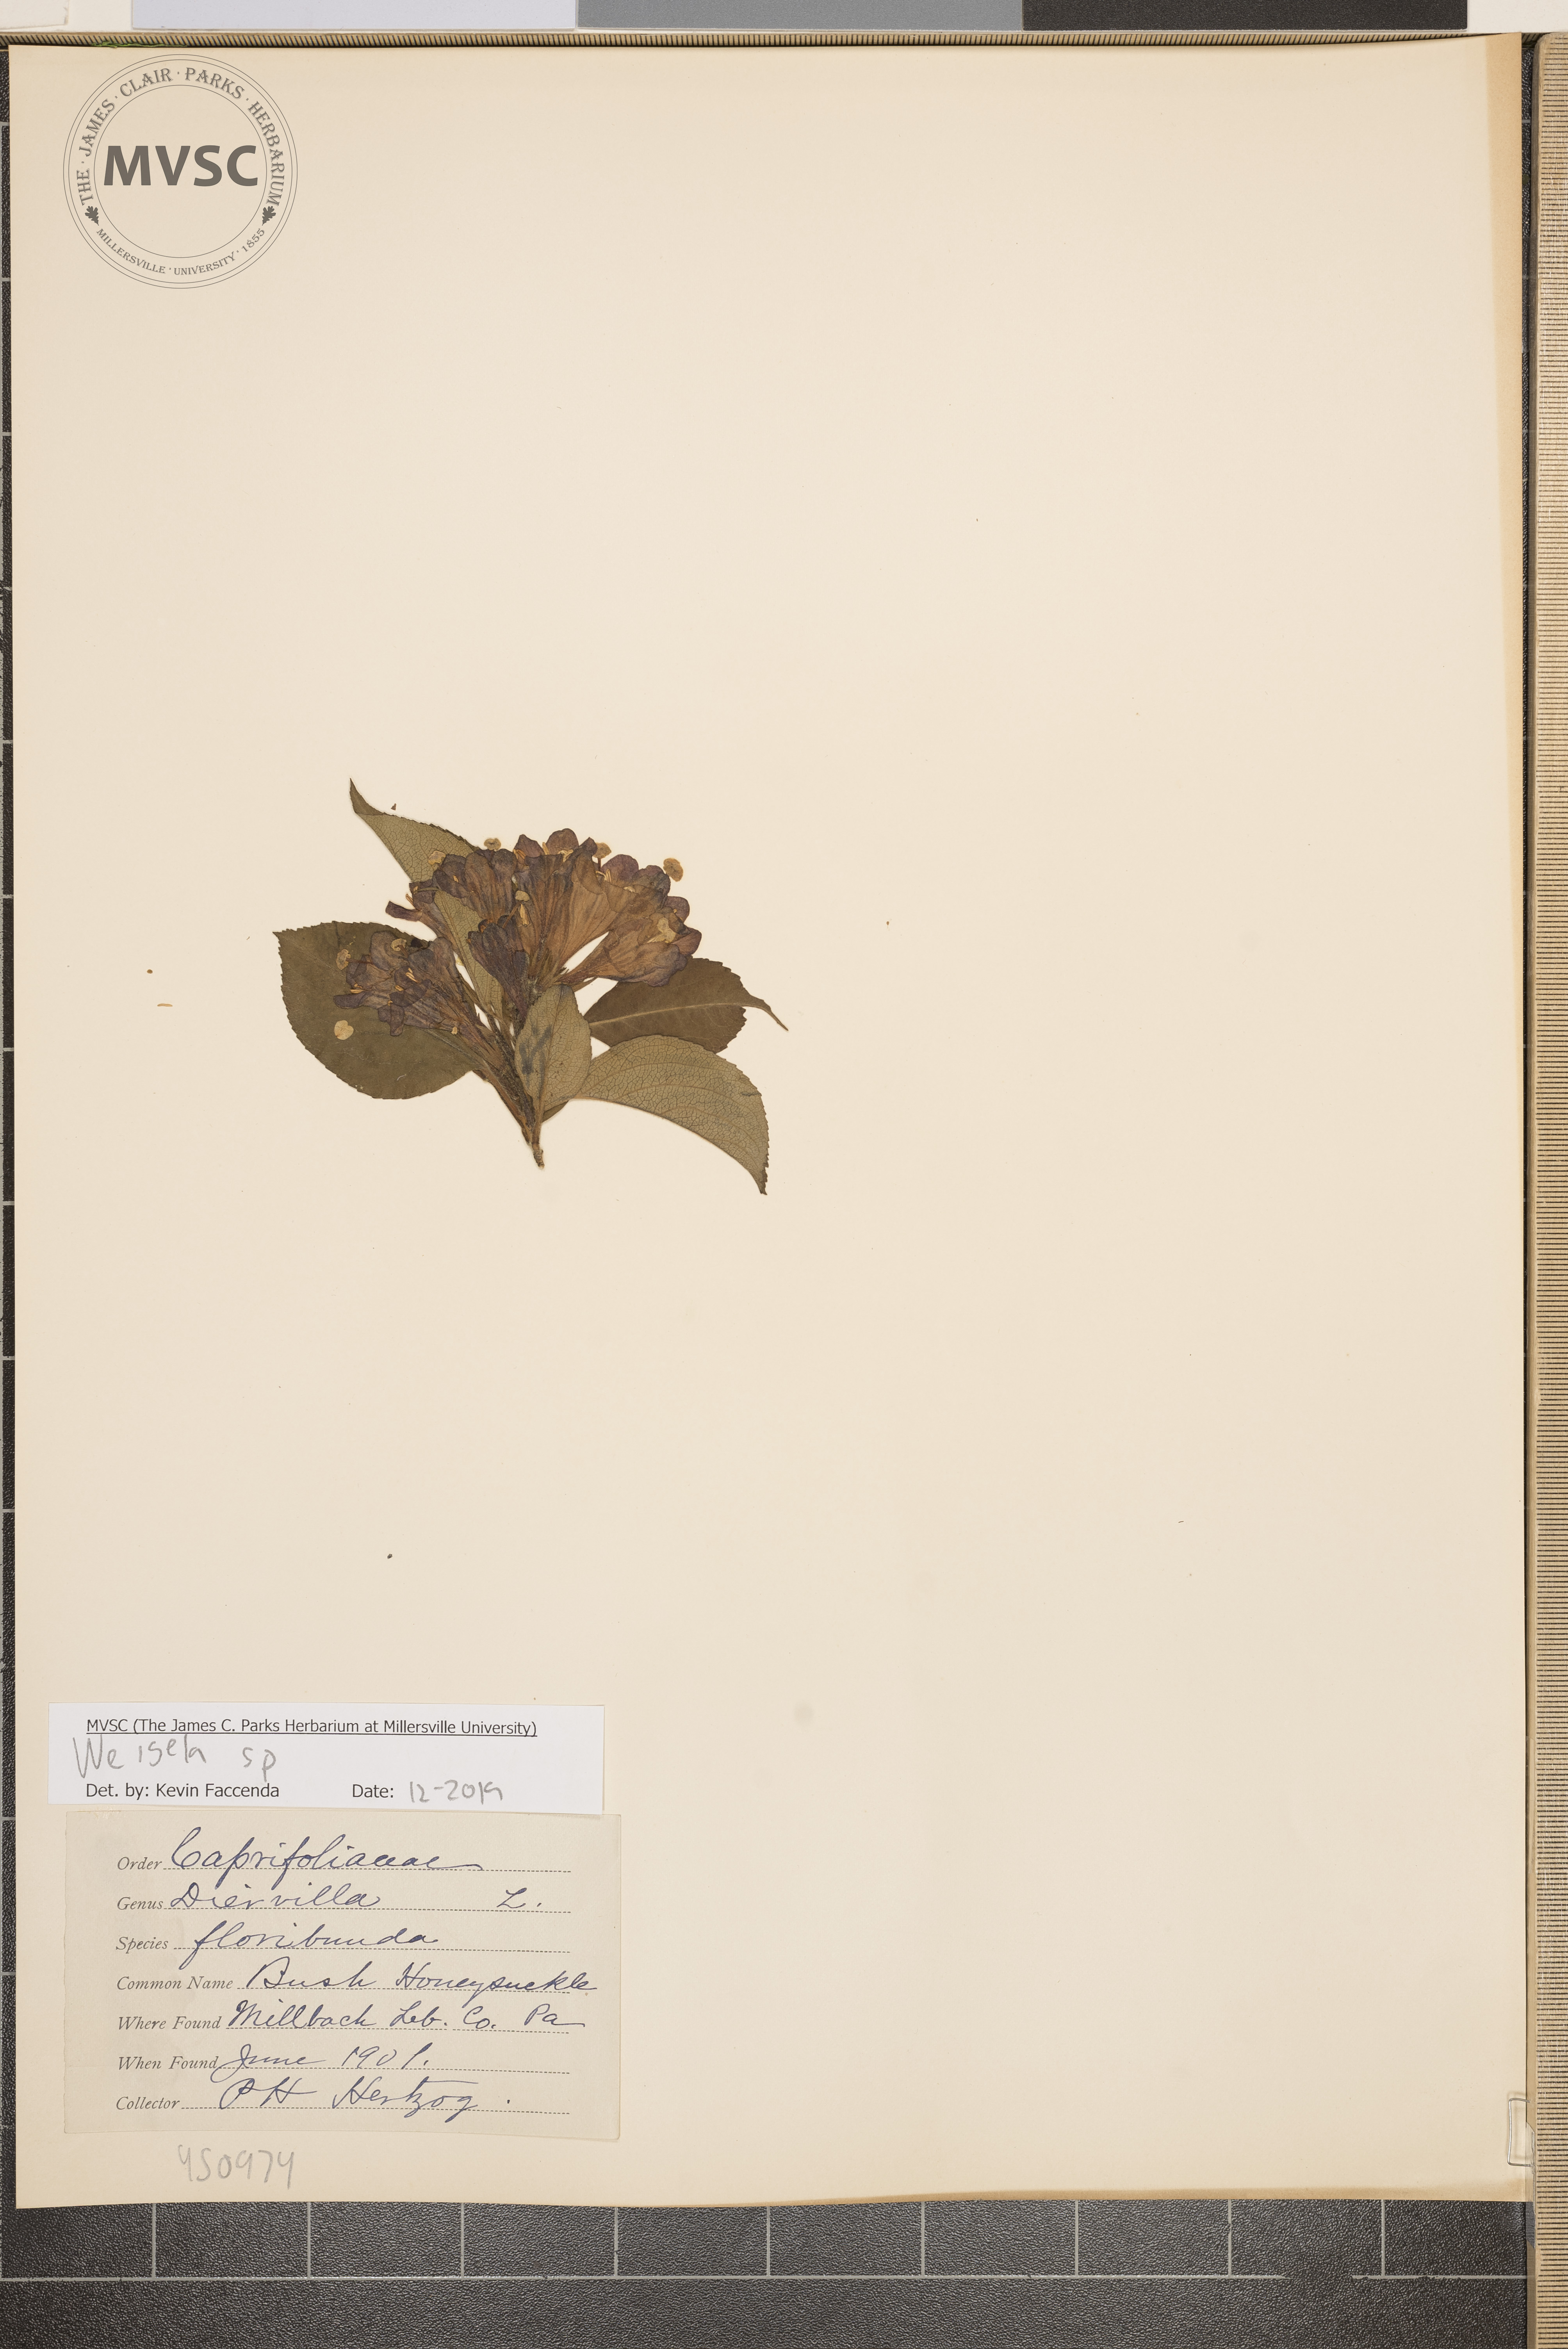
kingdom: Plantae
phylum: Tracheophyta
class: Magnoliopsida
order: Dipsacales
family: Caprifoliaceae
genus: Weigela
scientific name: Weigela
